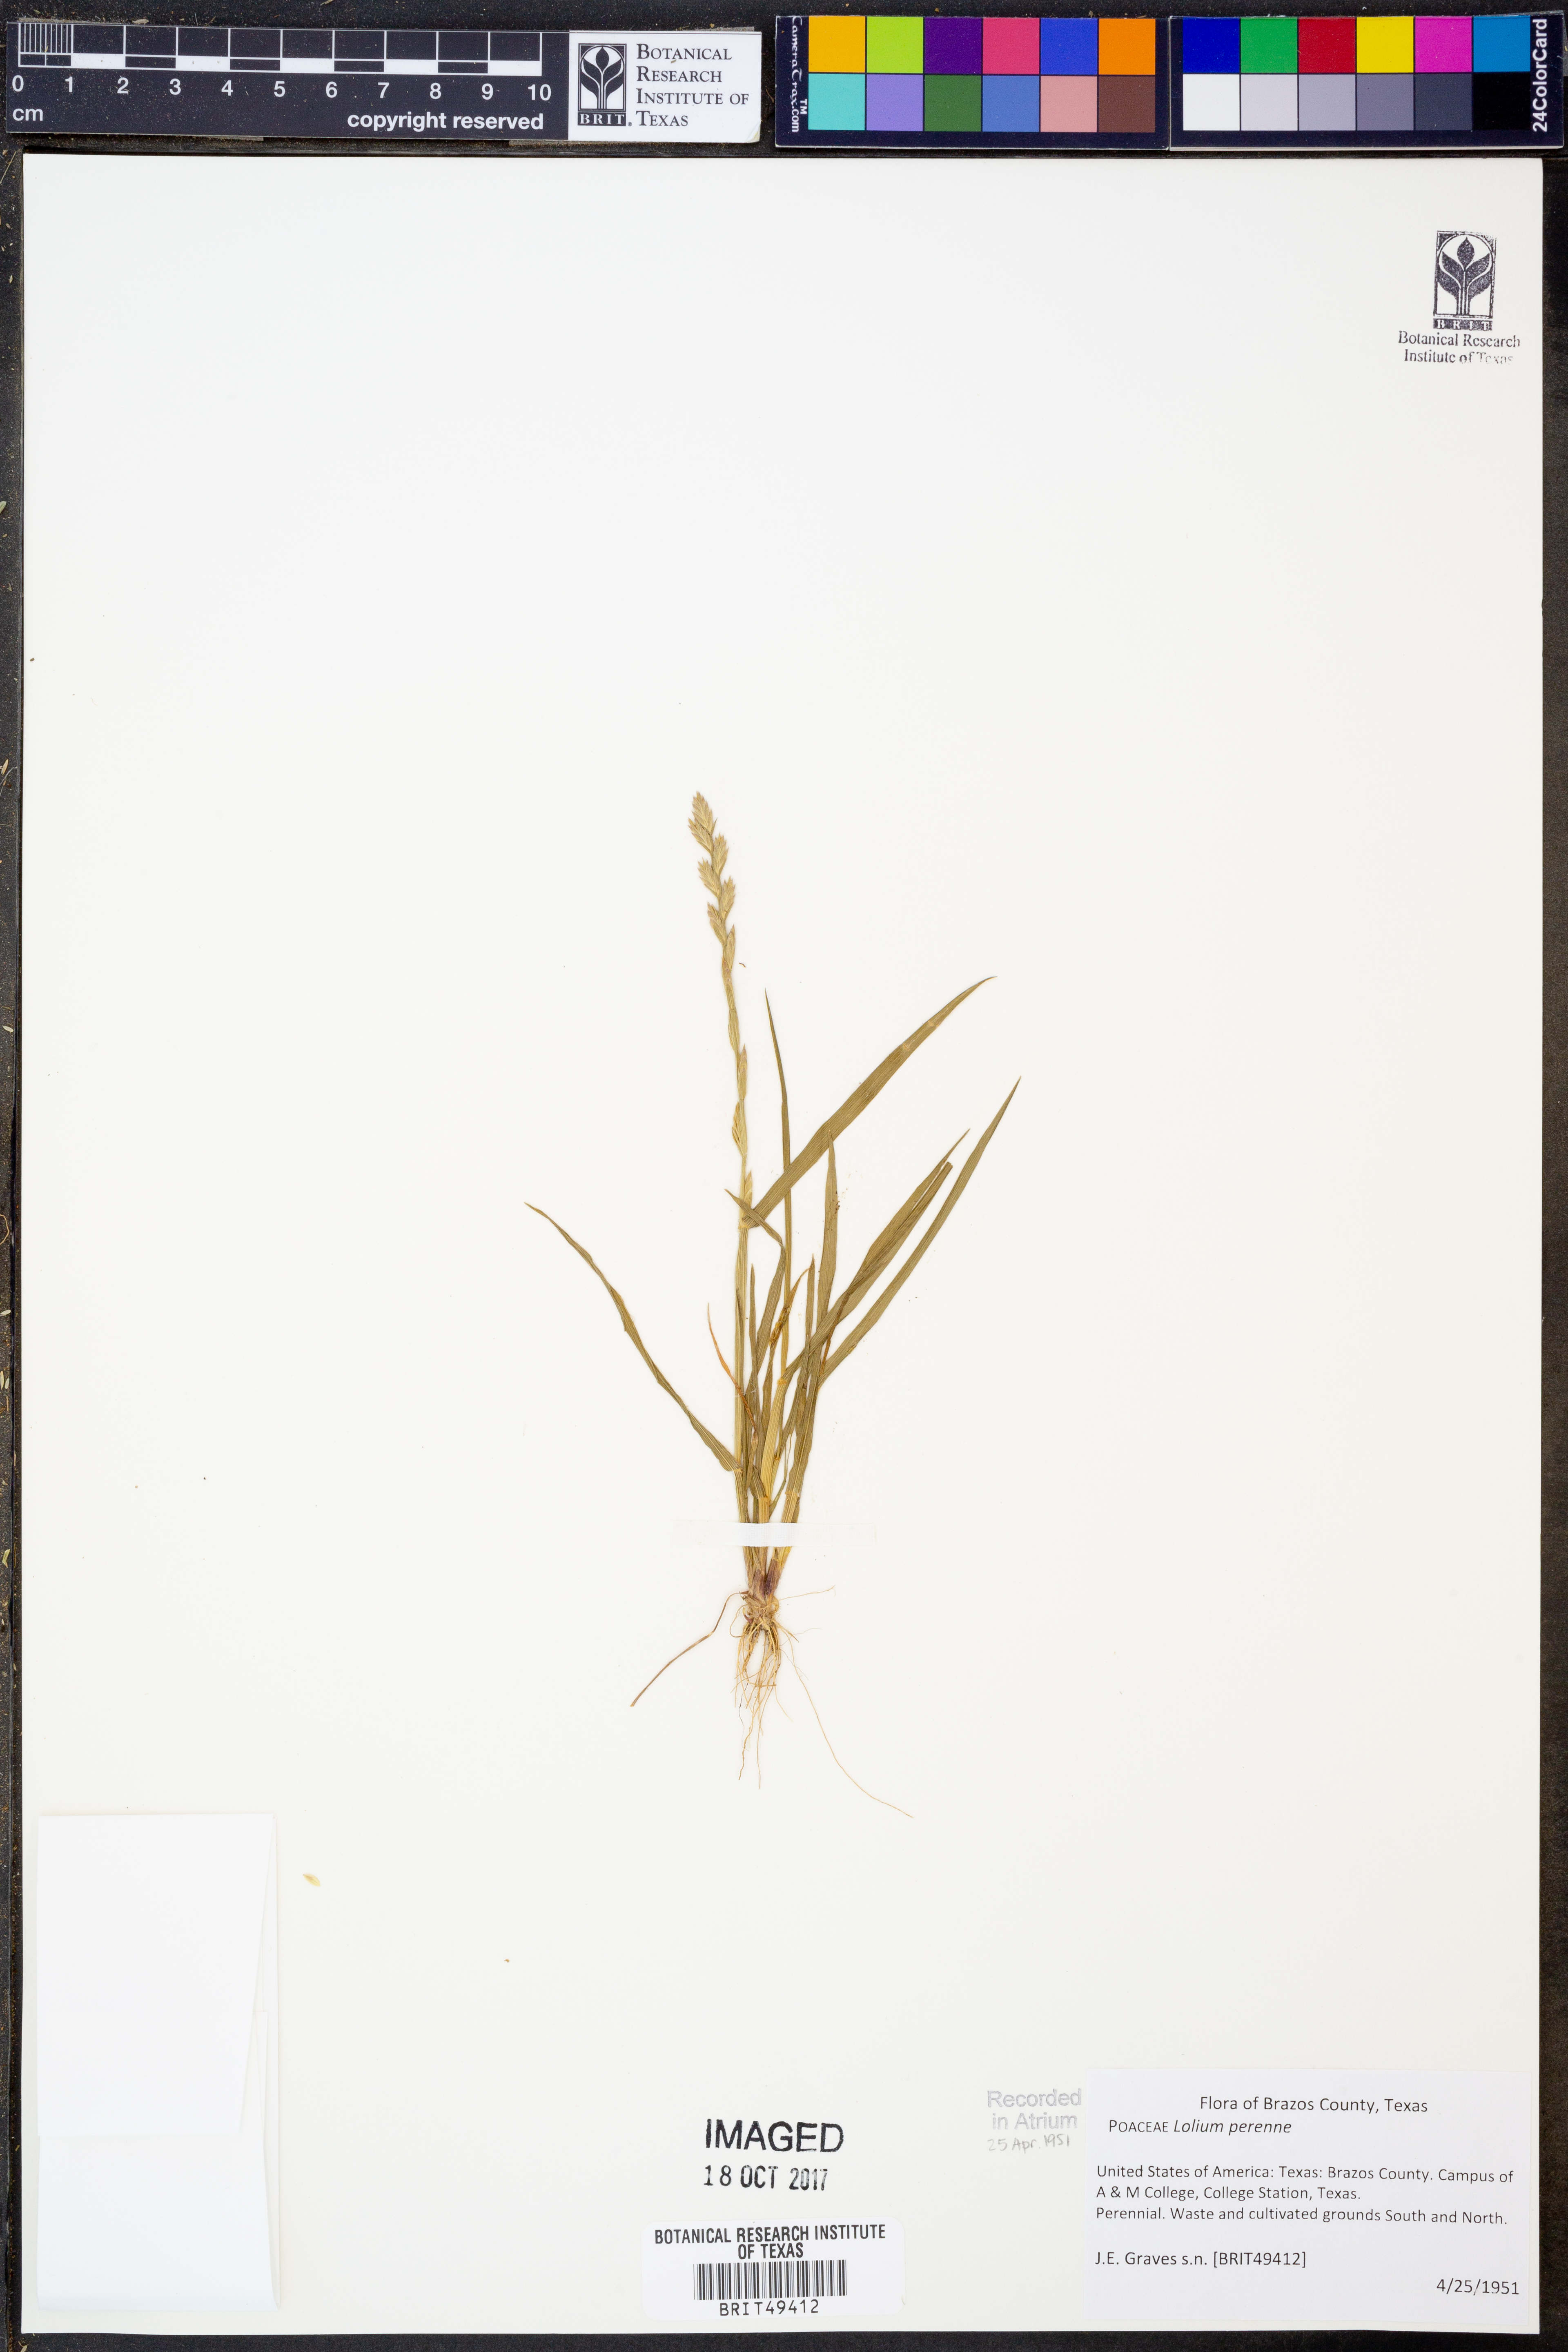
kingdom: Plantae
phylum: Tracheophyta
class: Liliopsida
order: Poales
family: Poaceae
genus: Lolium
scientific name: Lolium perenne
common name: Perennial ryegrass
